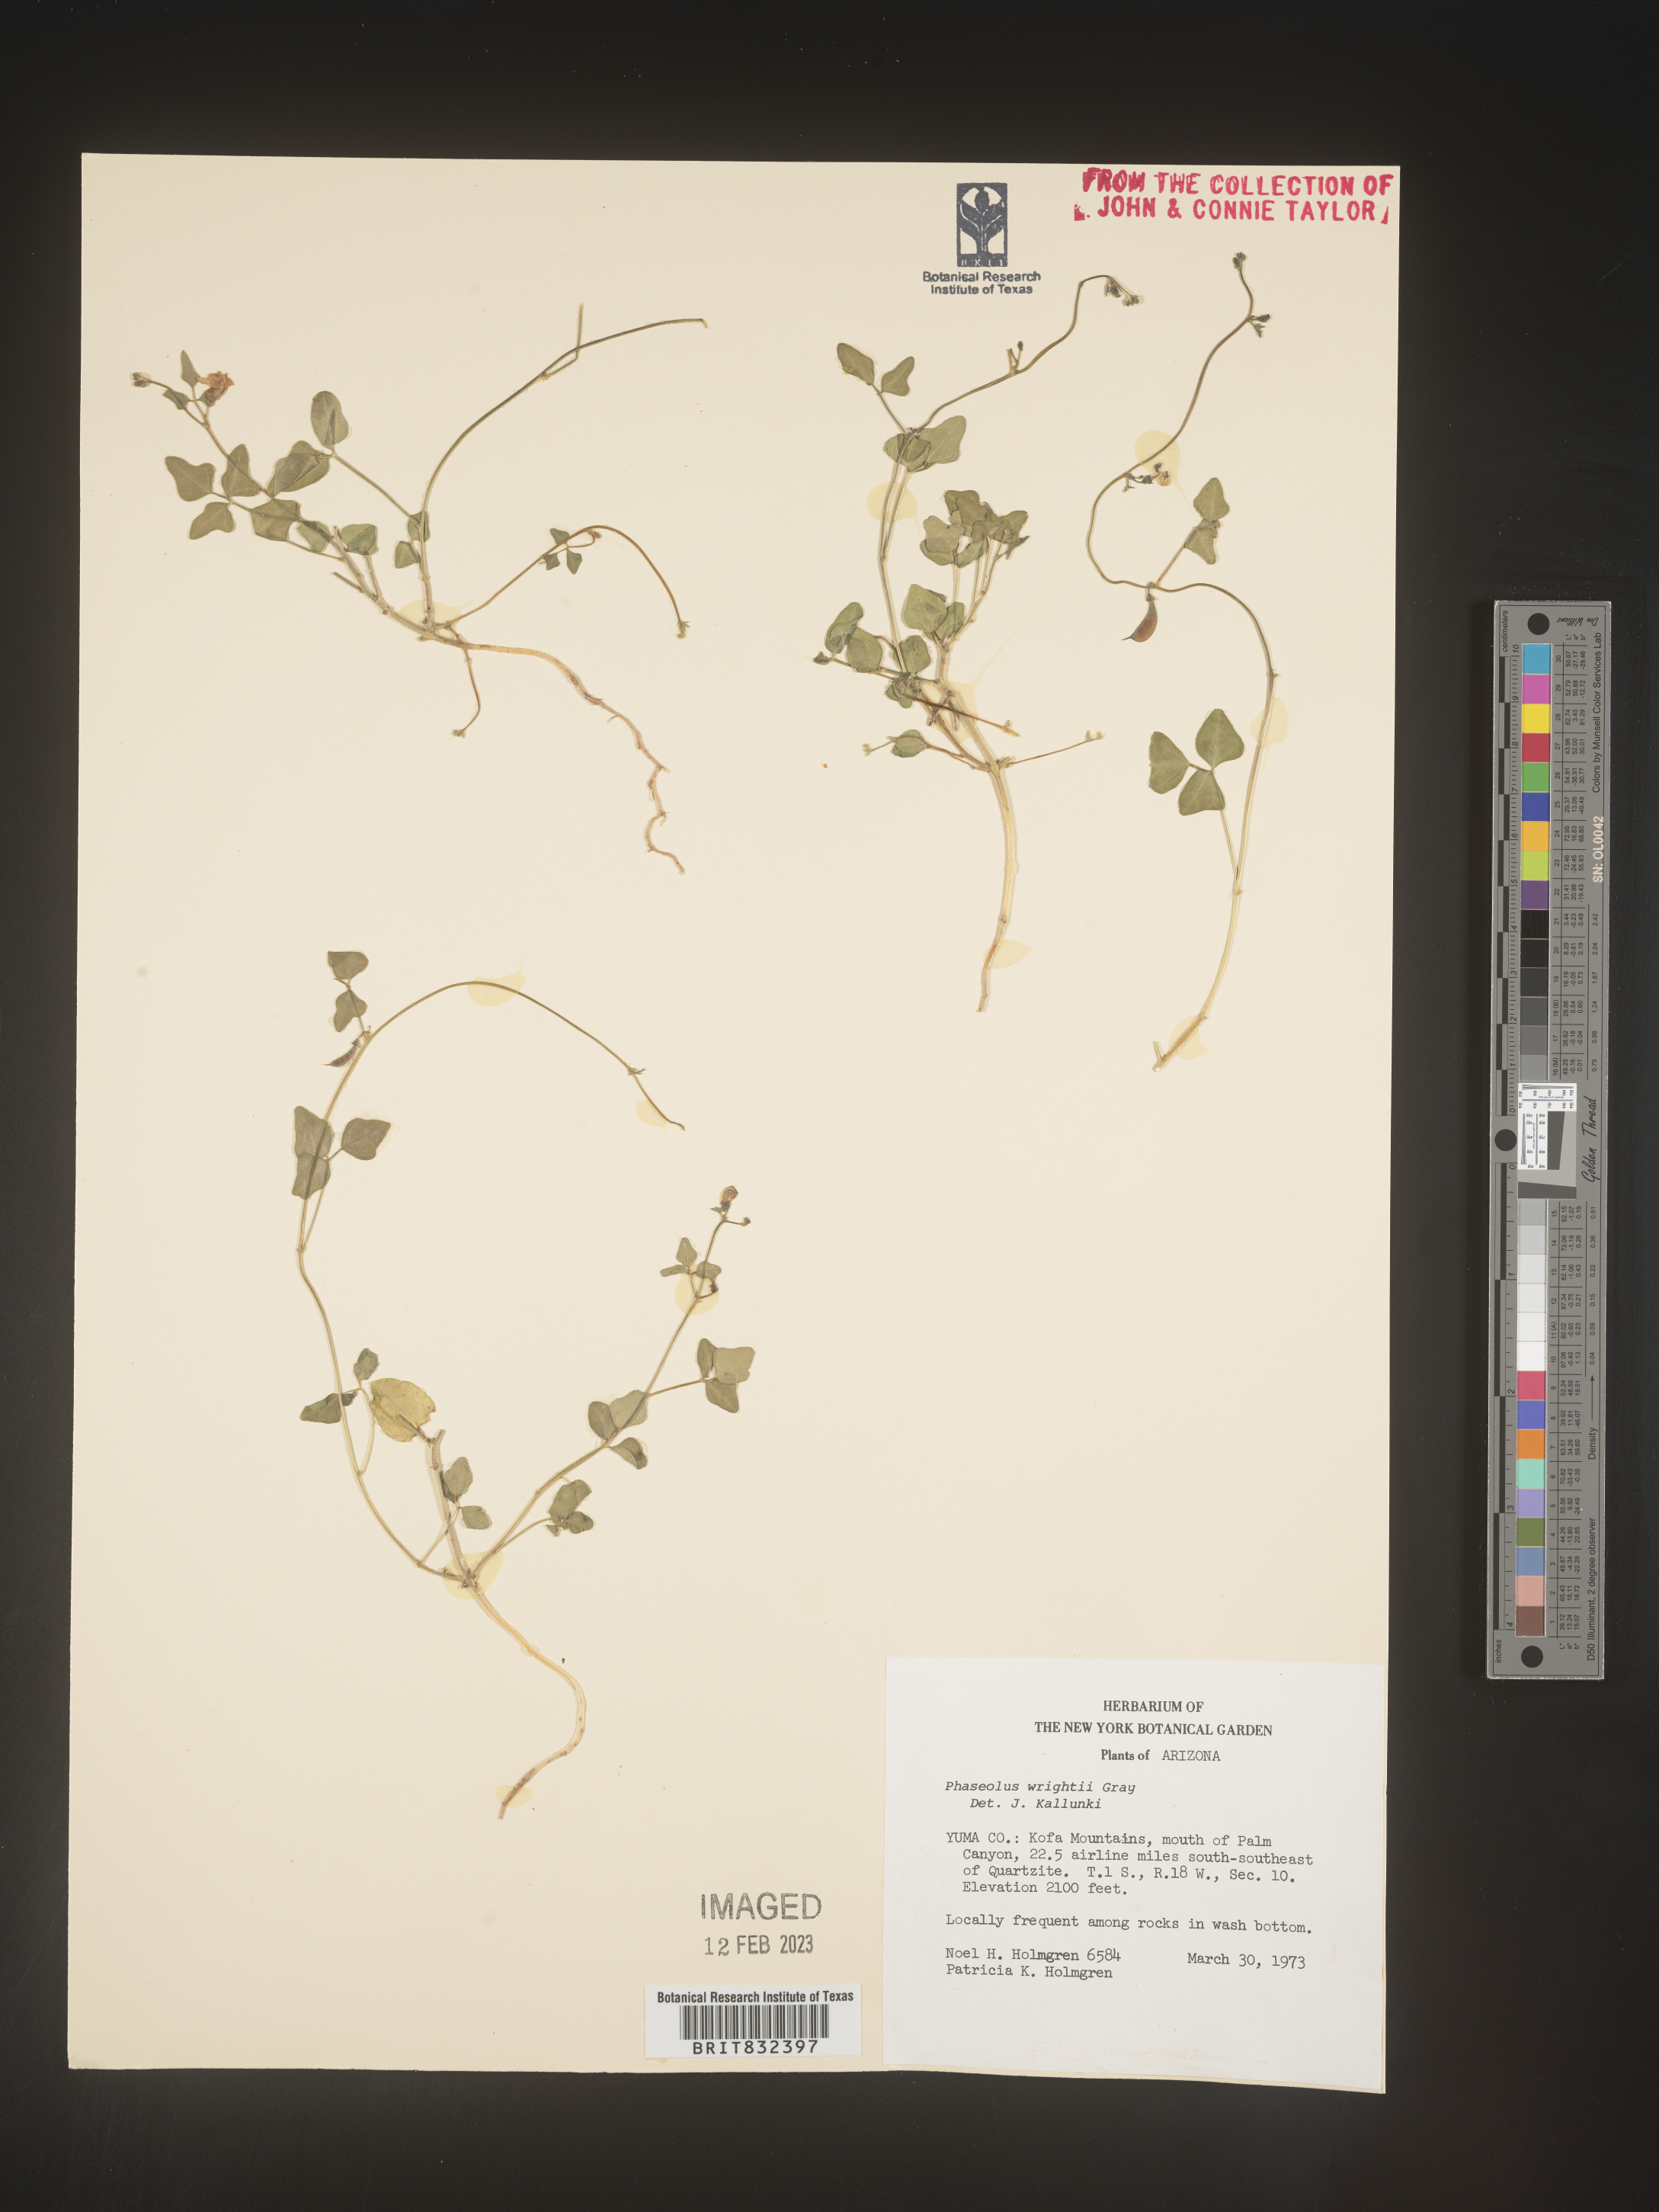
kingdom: Plantae
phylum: Tracheophyta
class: Magnoliopsida
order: Fabales
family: Fabaceae
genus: Strophostyles
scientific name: Strophostyles umbellata
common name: Perennial wild bean
